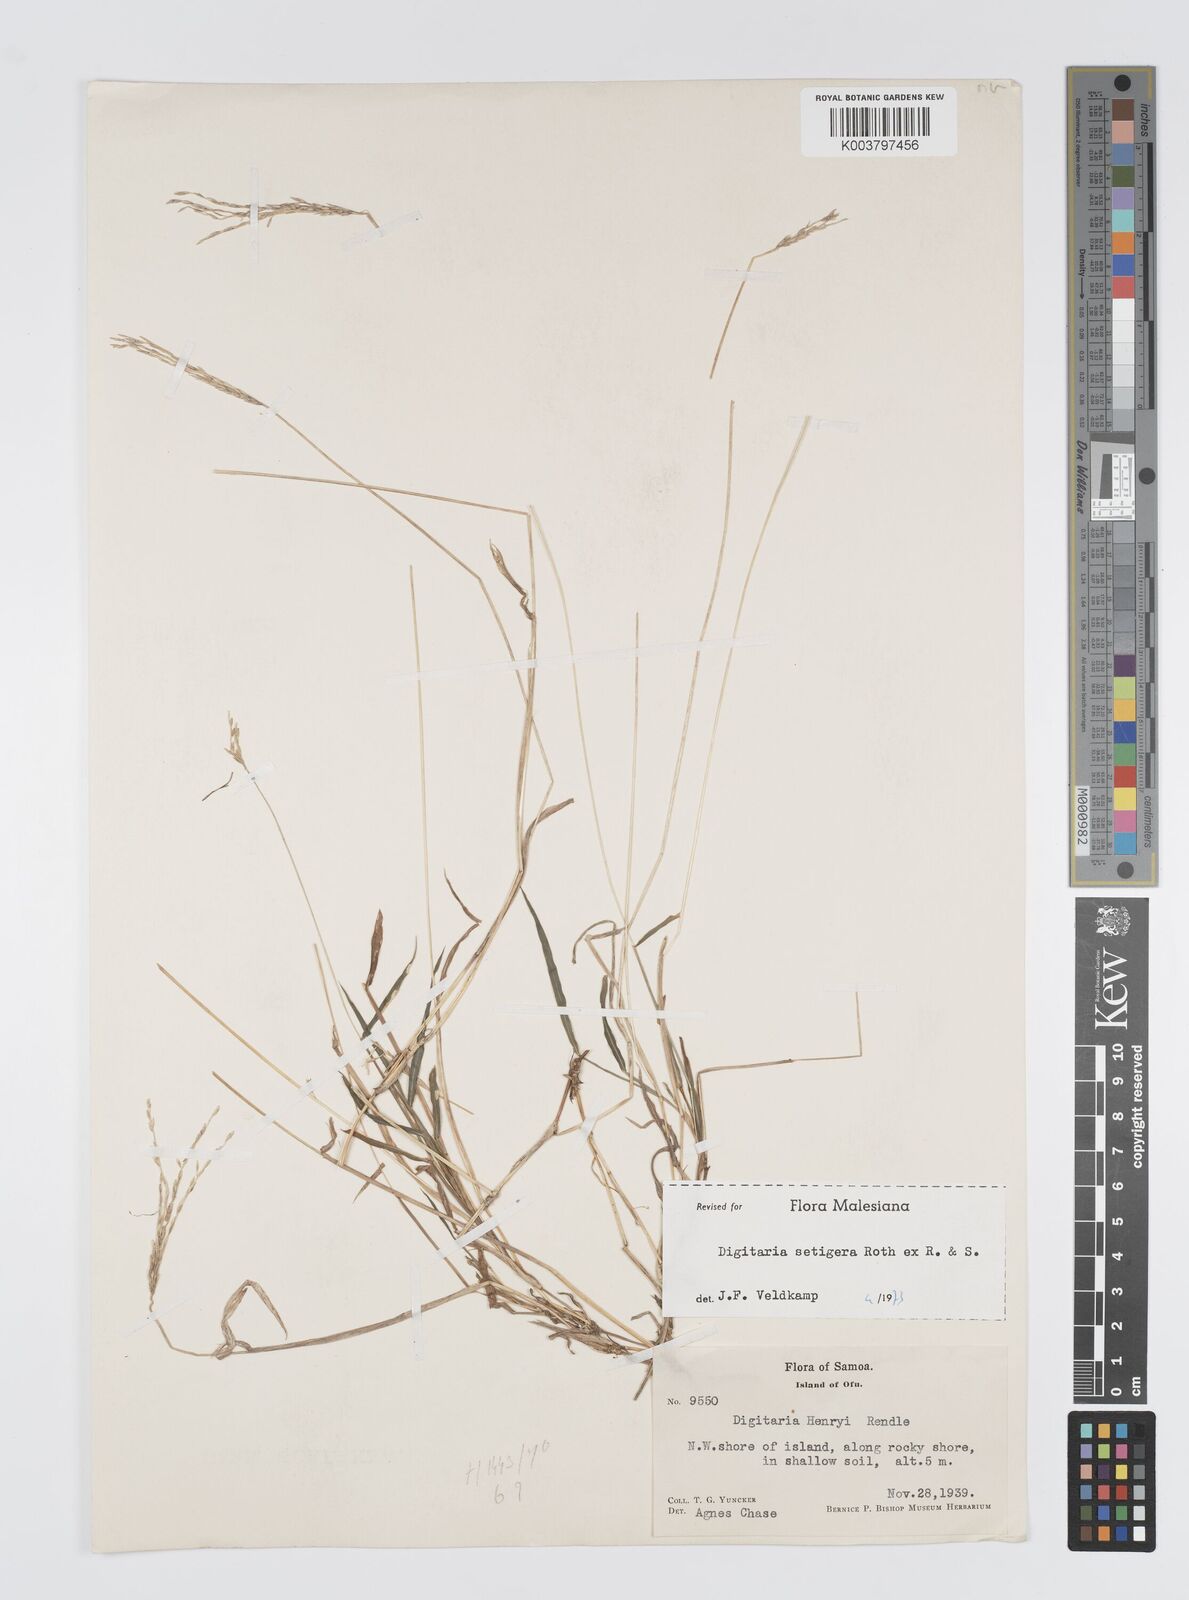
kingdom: Plantae
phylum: Tracheophyta
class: Liliopsida
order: Poales
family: Poaceae
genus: Digitaria
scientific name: Digitaria setigera
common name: East indian crabgrass
